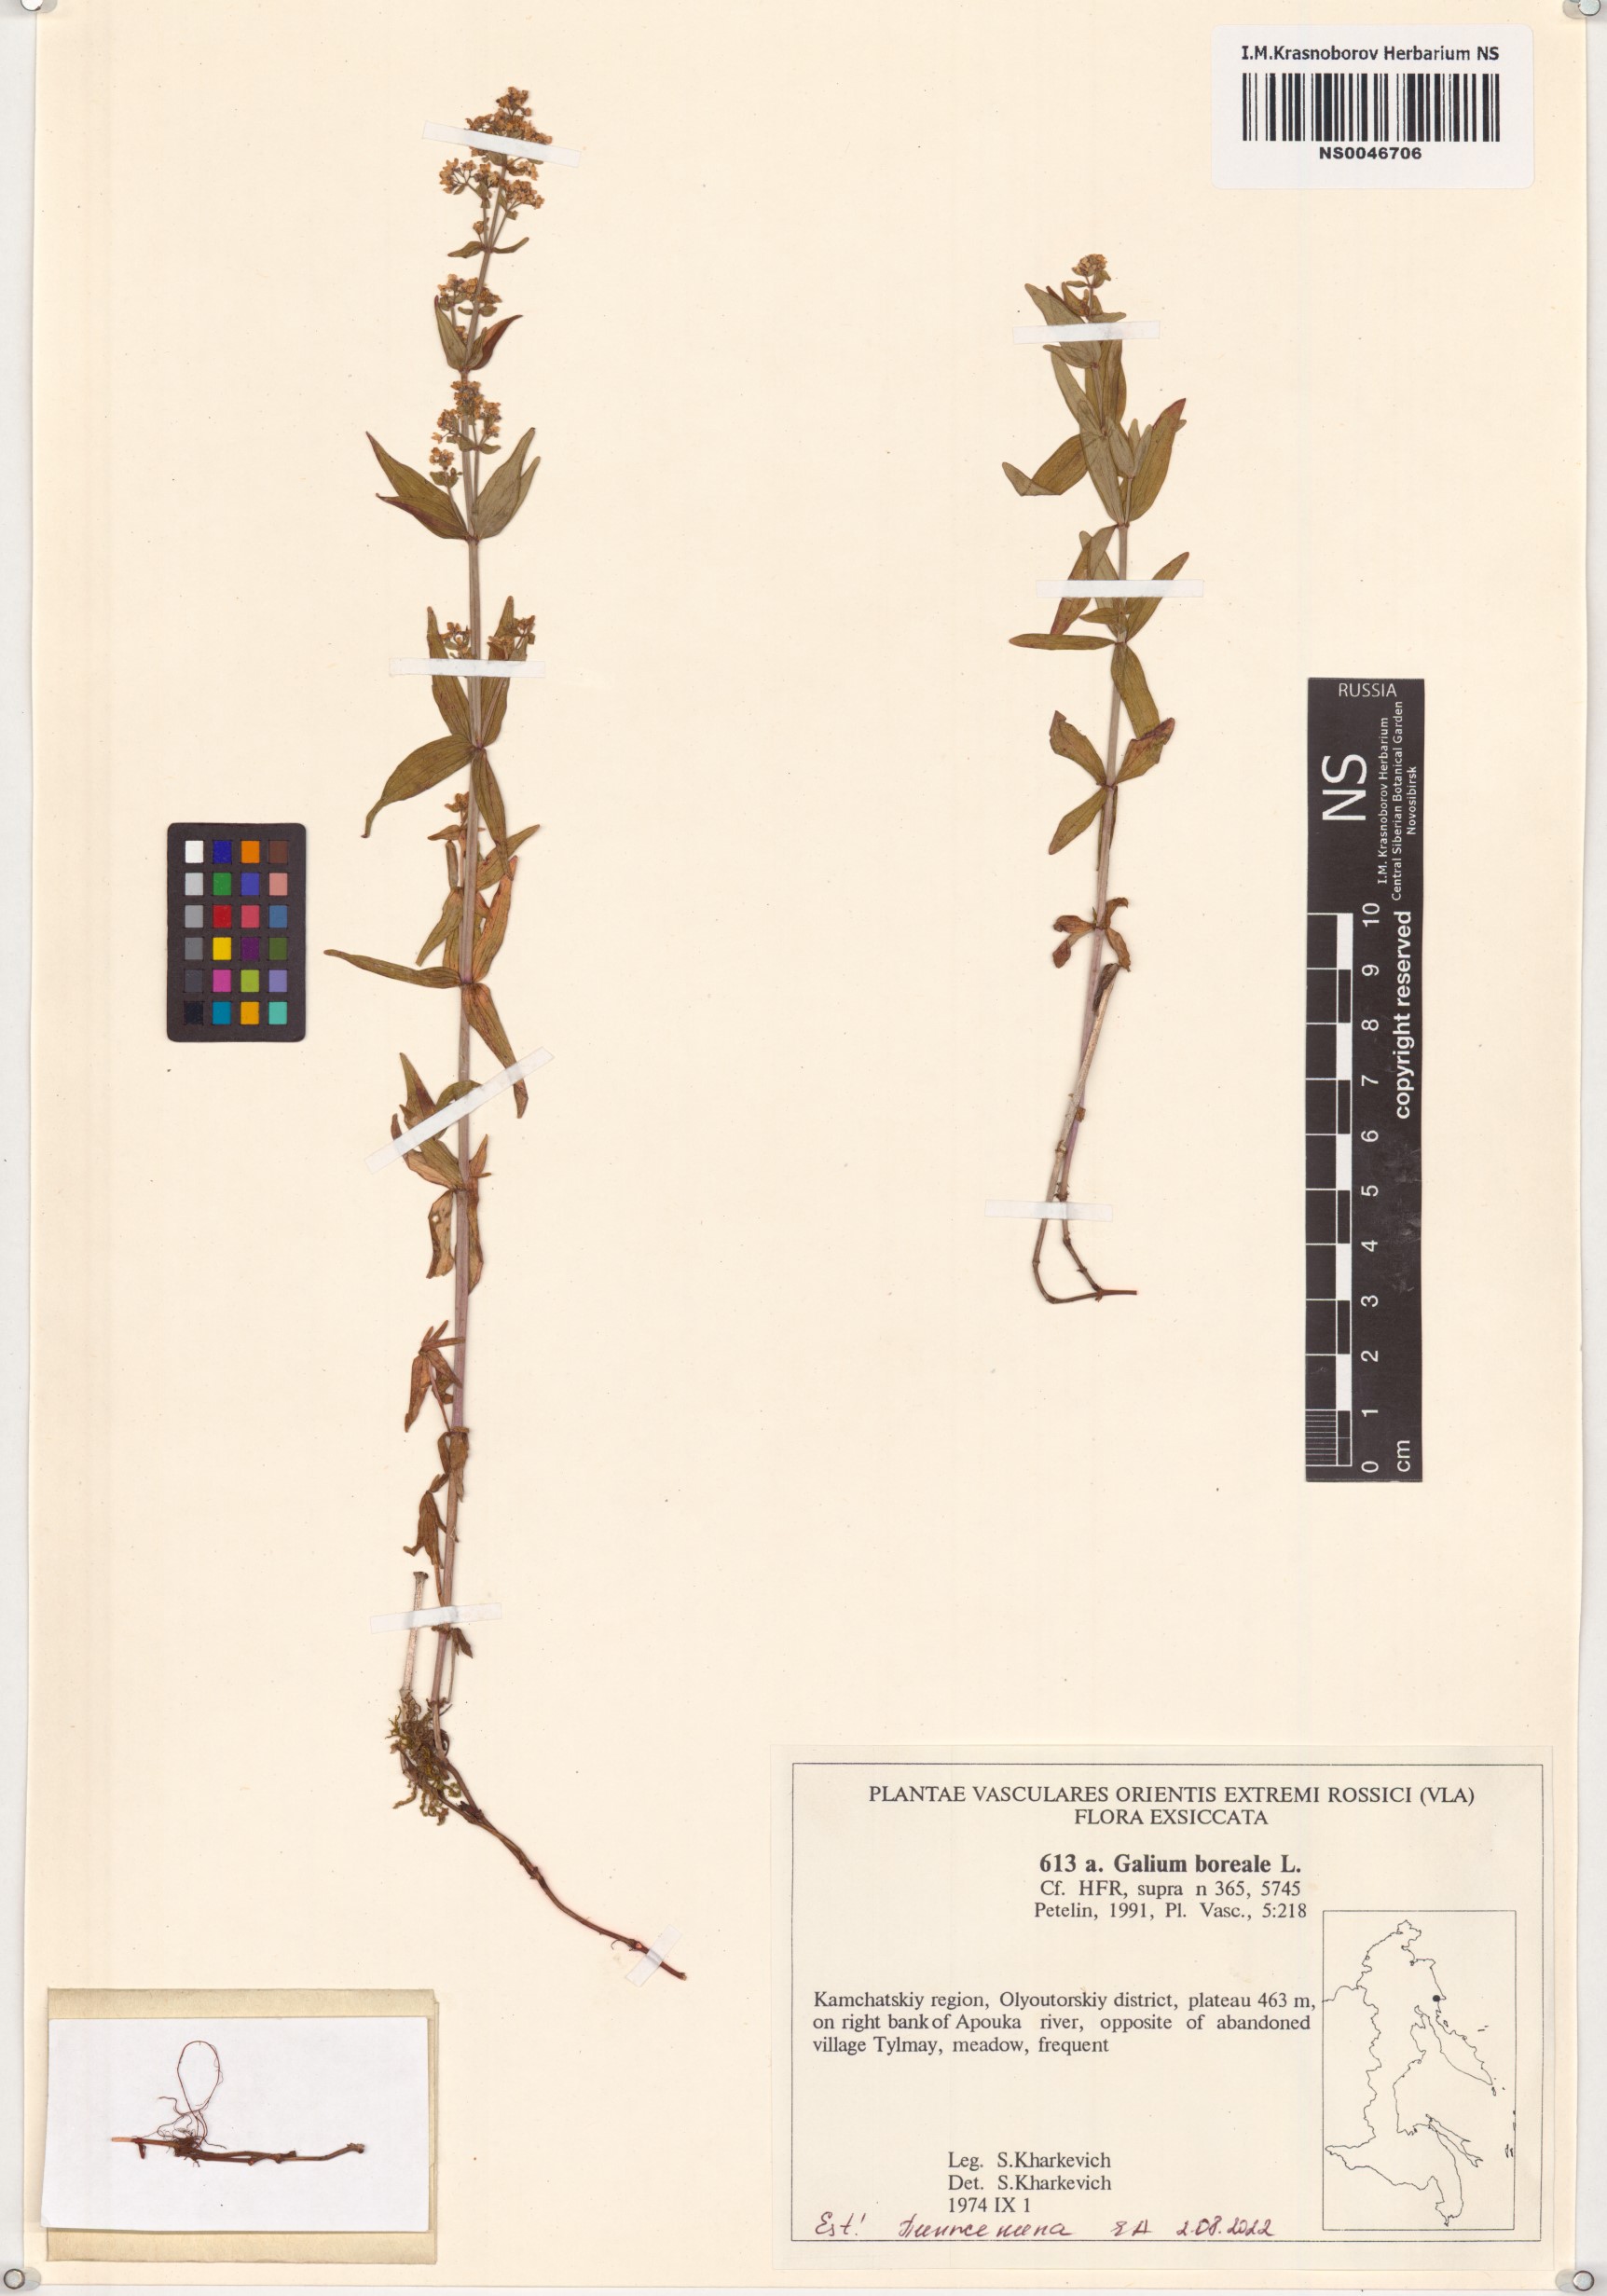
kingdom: Plantae
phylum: Tracheophyta
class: Magnoliopsida
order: Gentianales
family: Rubiaceae
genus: Galium
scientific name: Galium boreale
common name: Northern bedstraw
